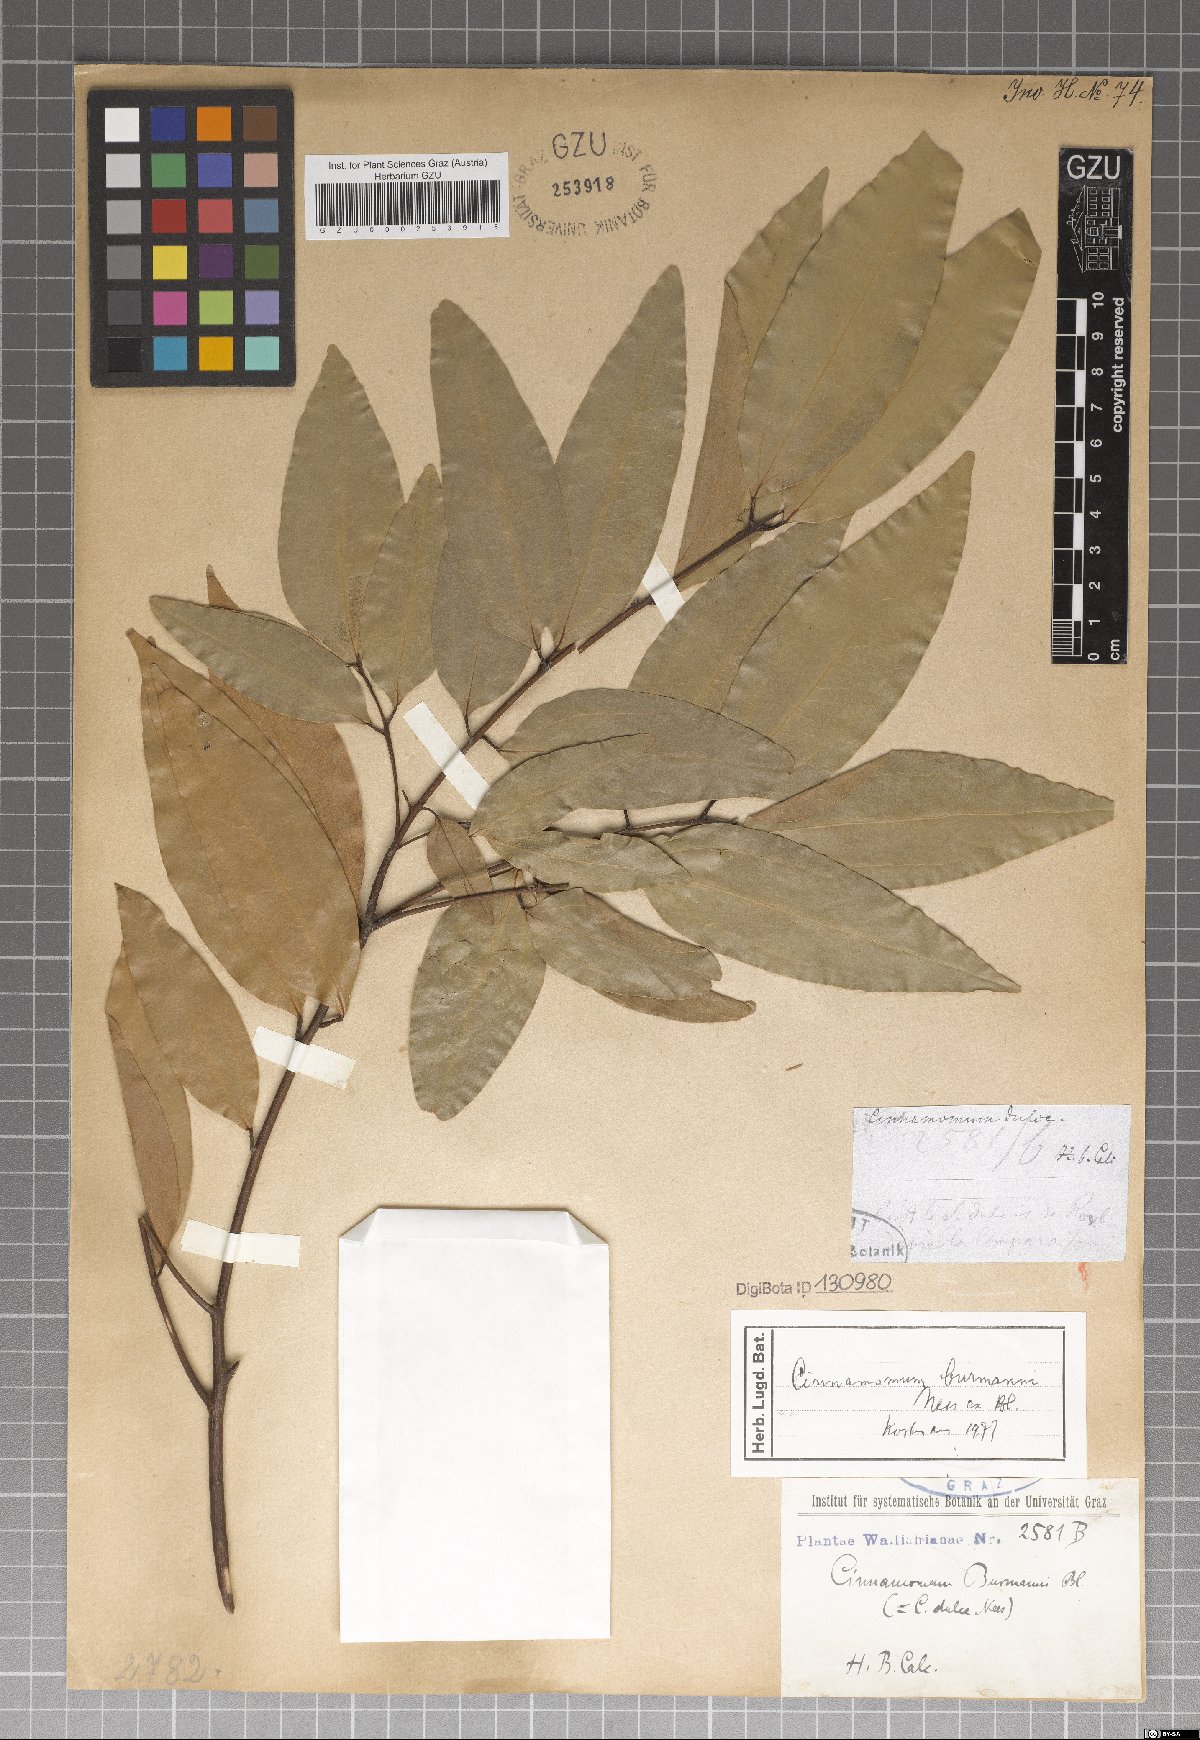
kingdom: Plantae
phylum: Tracheophyta
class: Magnoliopsida
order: Laurales
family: Lauraceae
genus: Cinnamomum
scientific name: Cinnamomum burmanni
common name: Padang cassia
